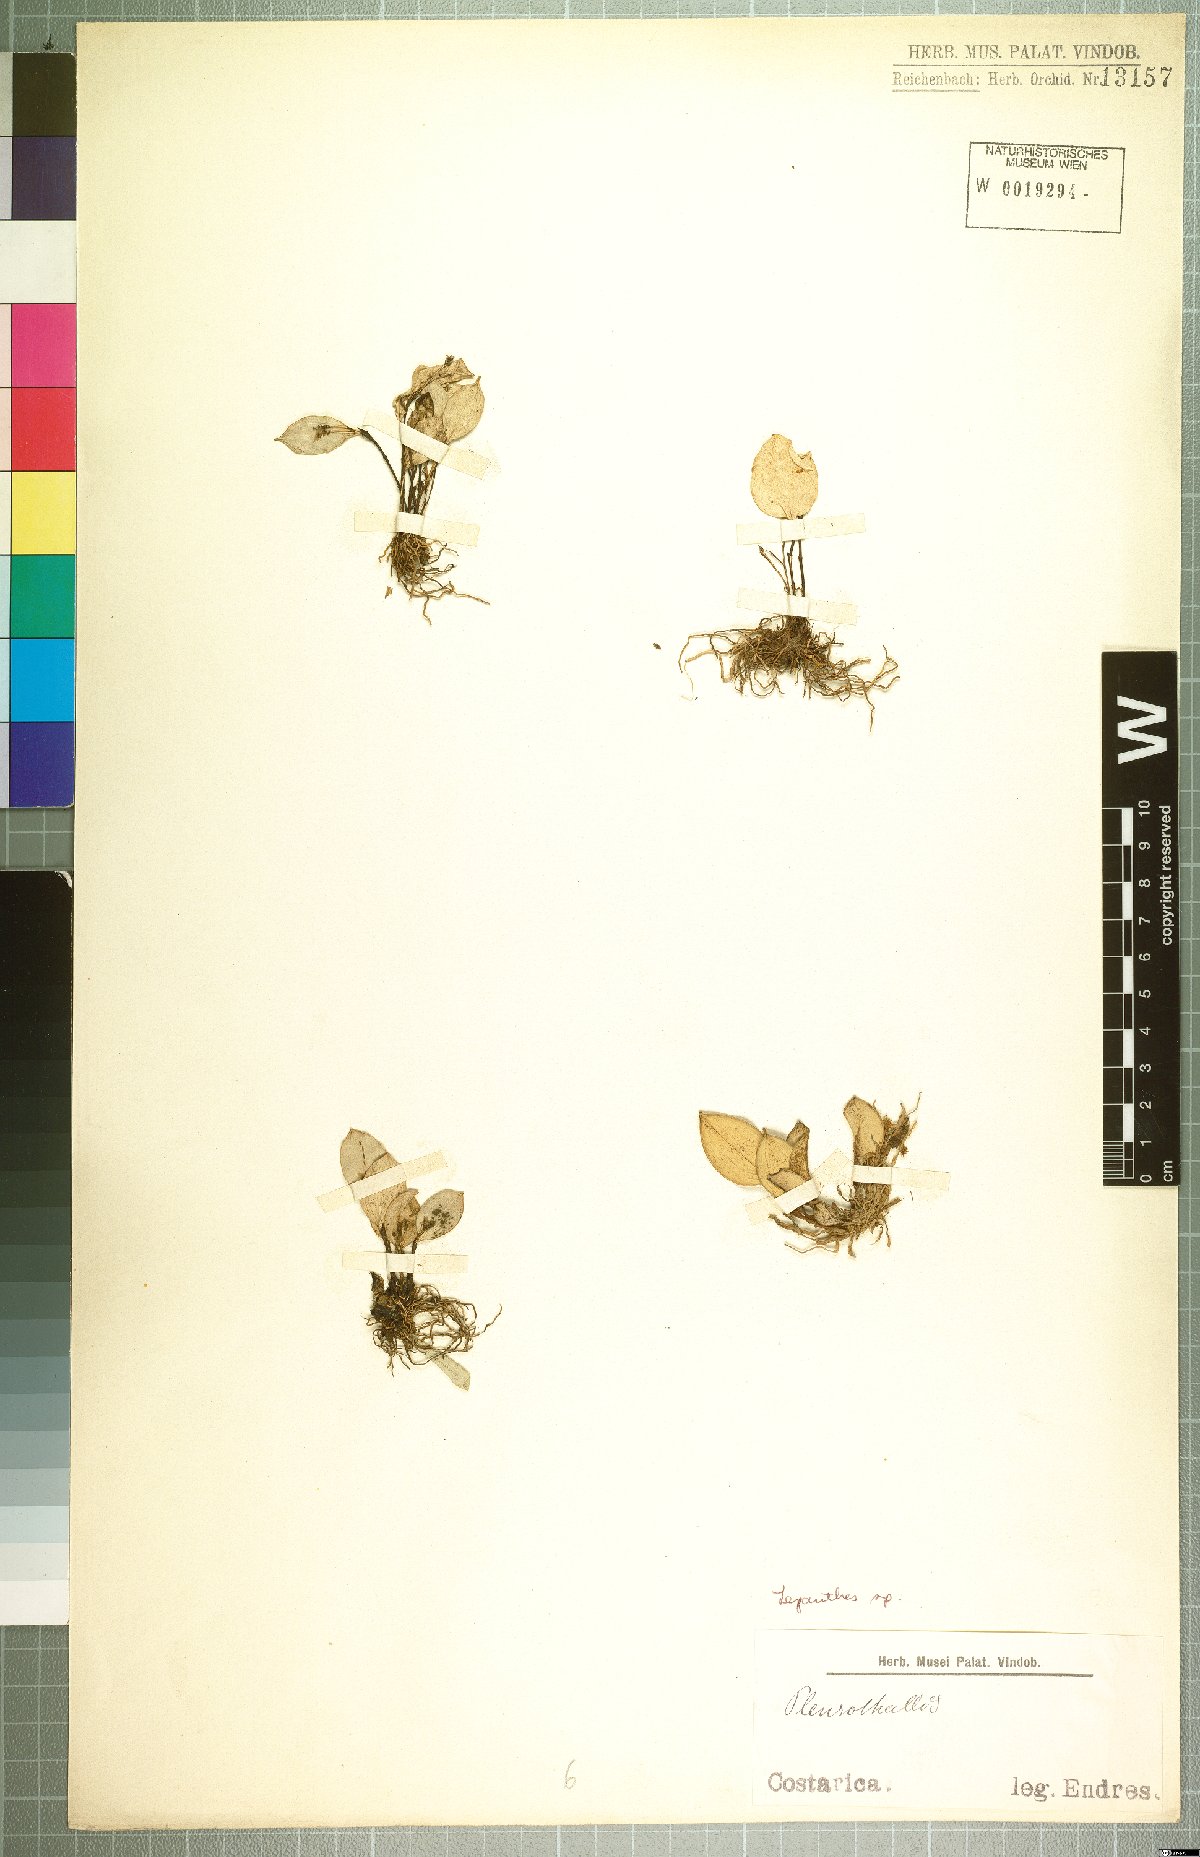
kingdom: Plantae
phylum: Tracheophyta
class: Liliopsida
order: Asparagales
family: Orchidaceae
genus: Lepanthes
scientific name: Lepanthes
